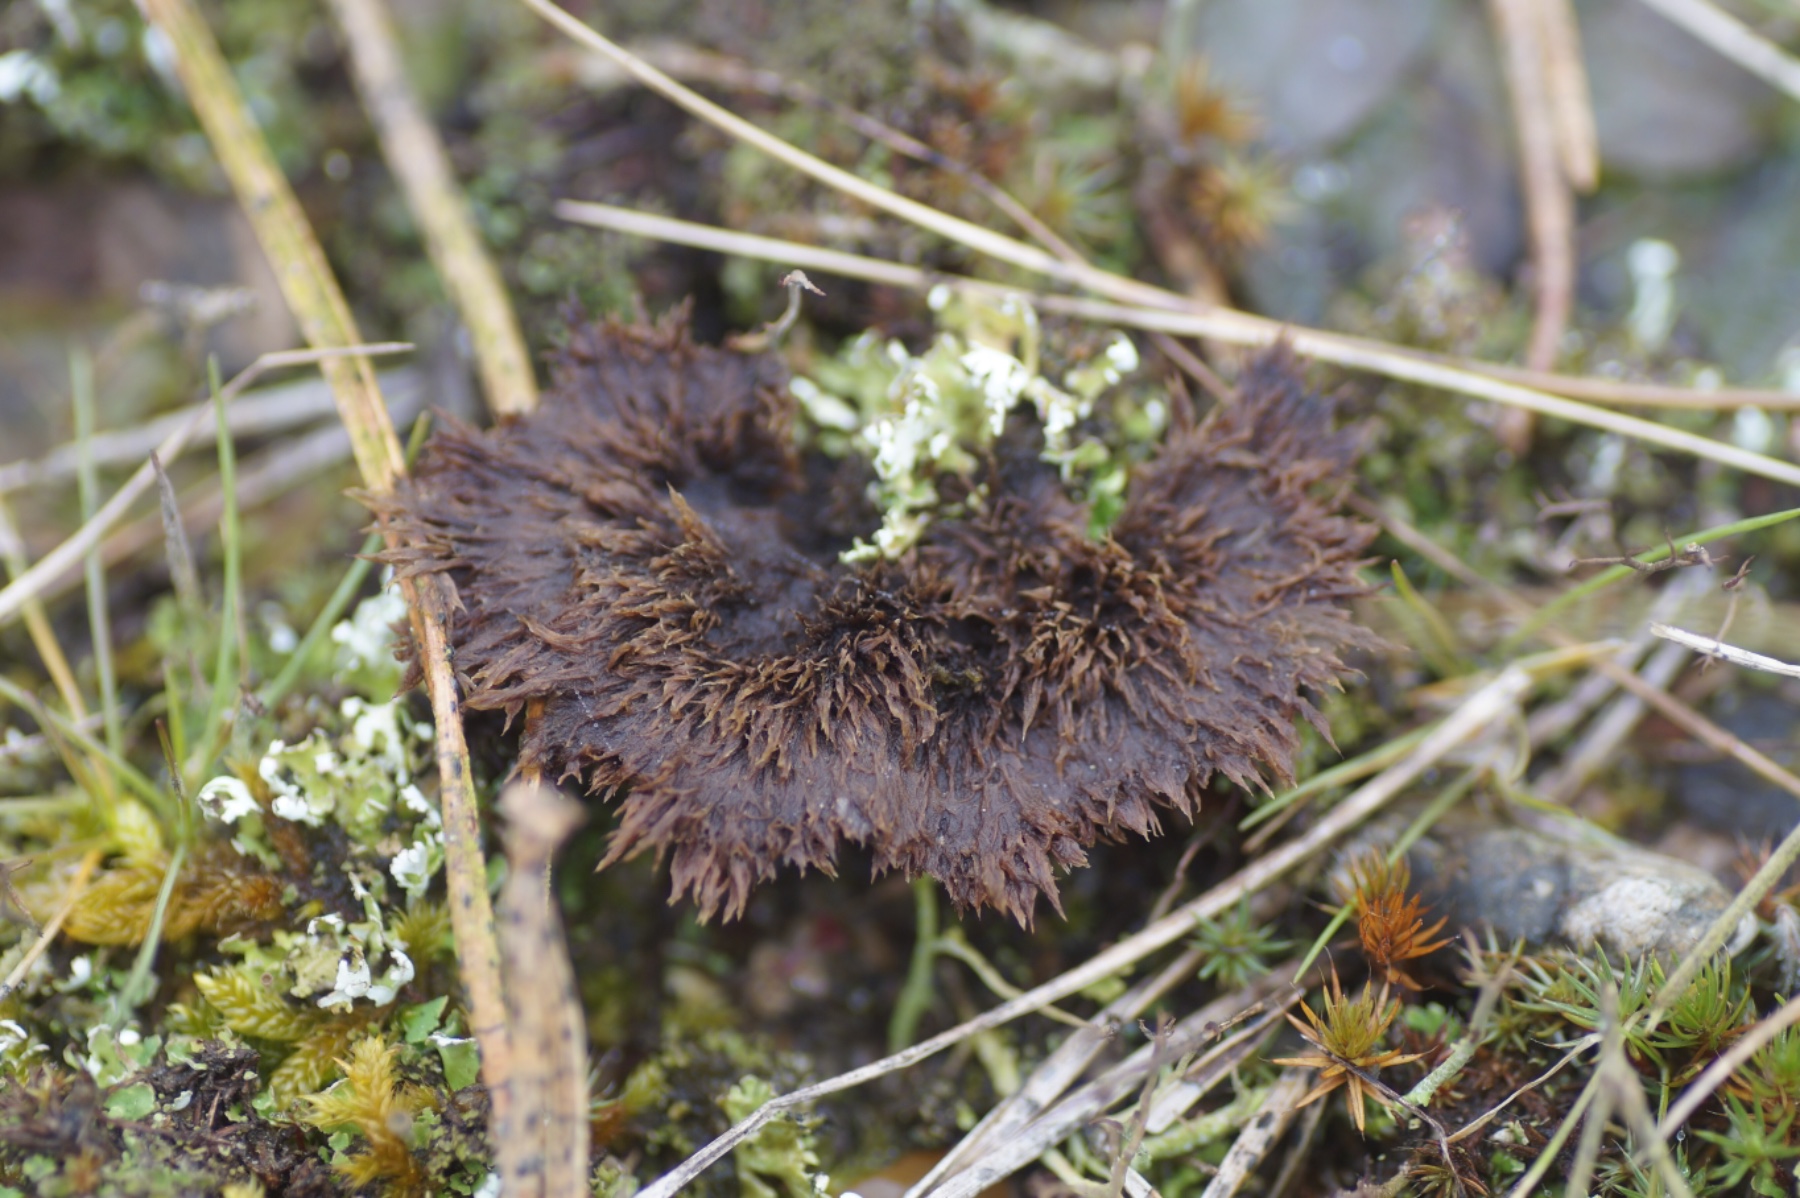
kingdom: Fungi
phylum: Basidiomycota
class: Agaricomycetes
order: Thelephorales
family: Thelephoraceae
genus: Thelephora
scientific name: Thelephora terrestris
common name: fliget frynsesvamp
